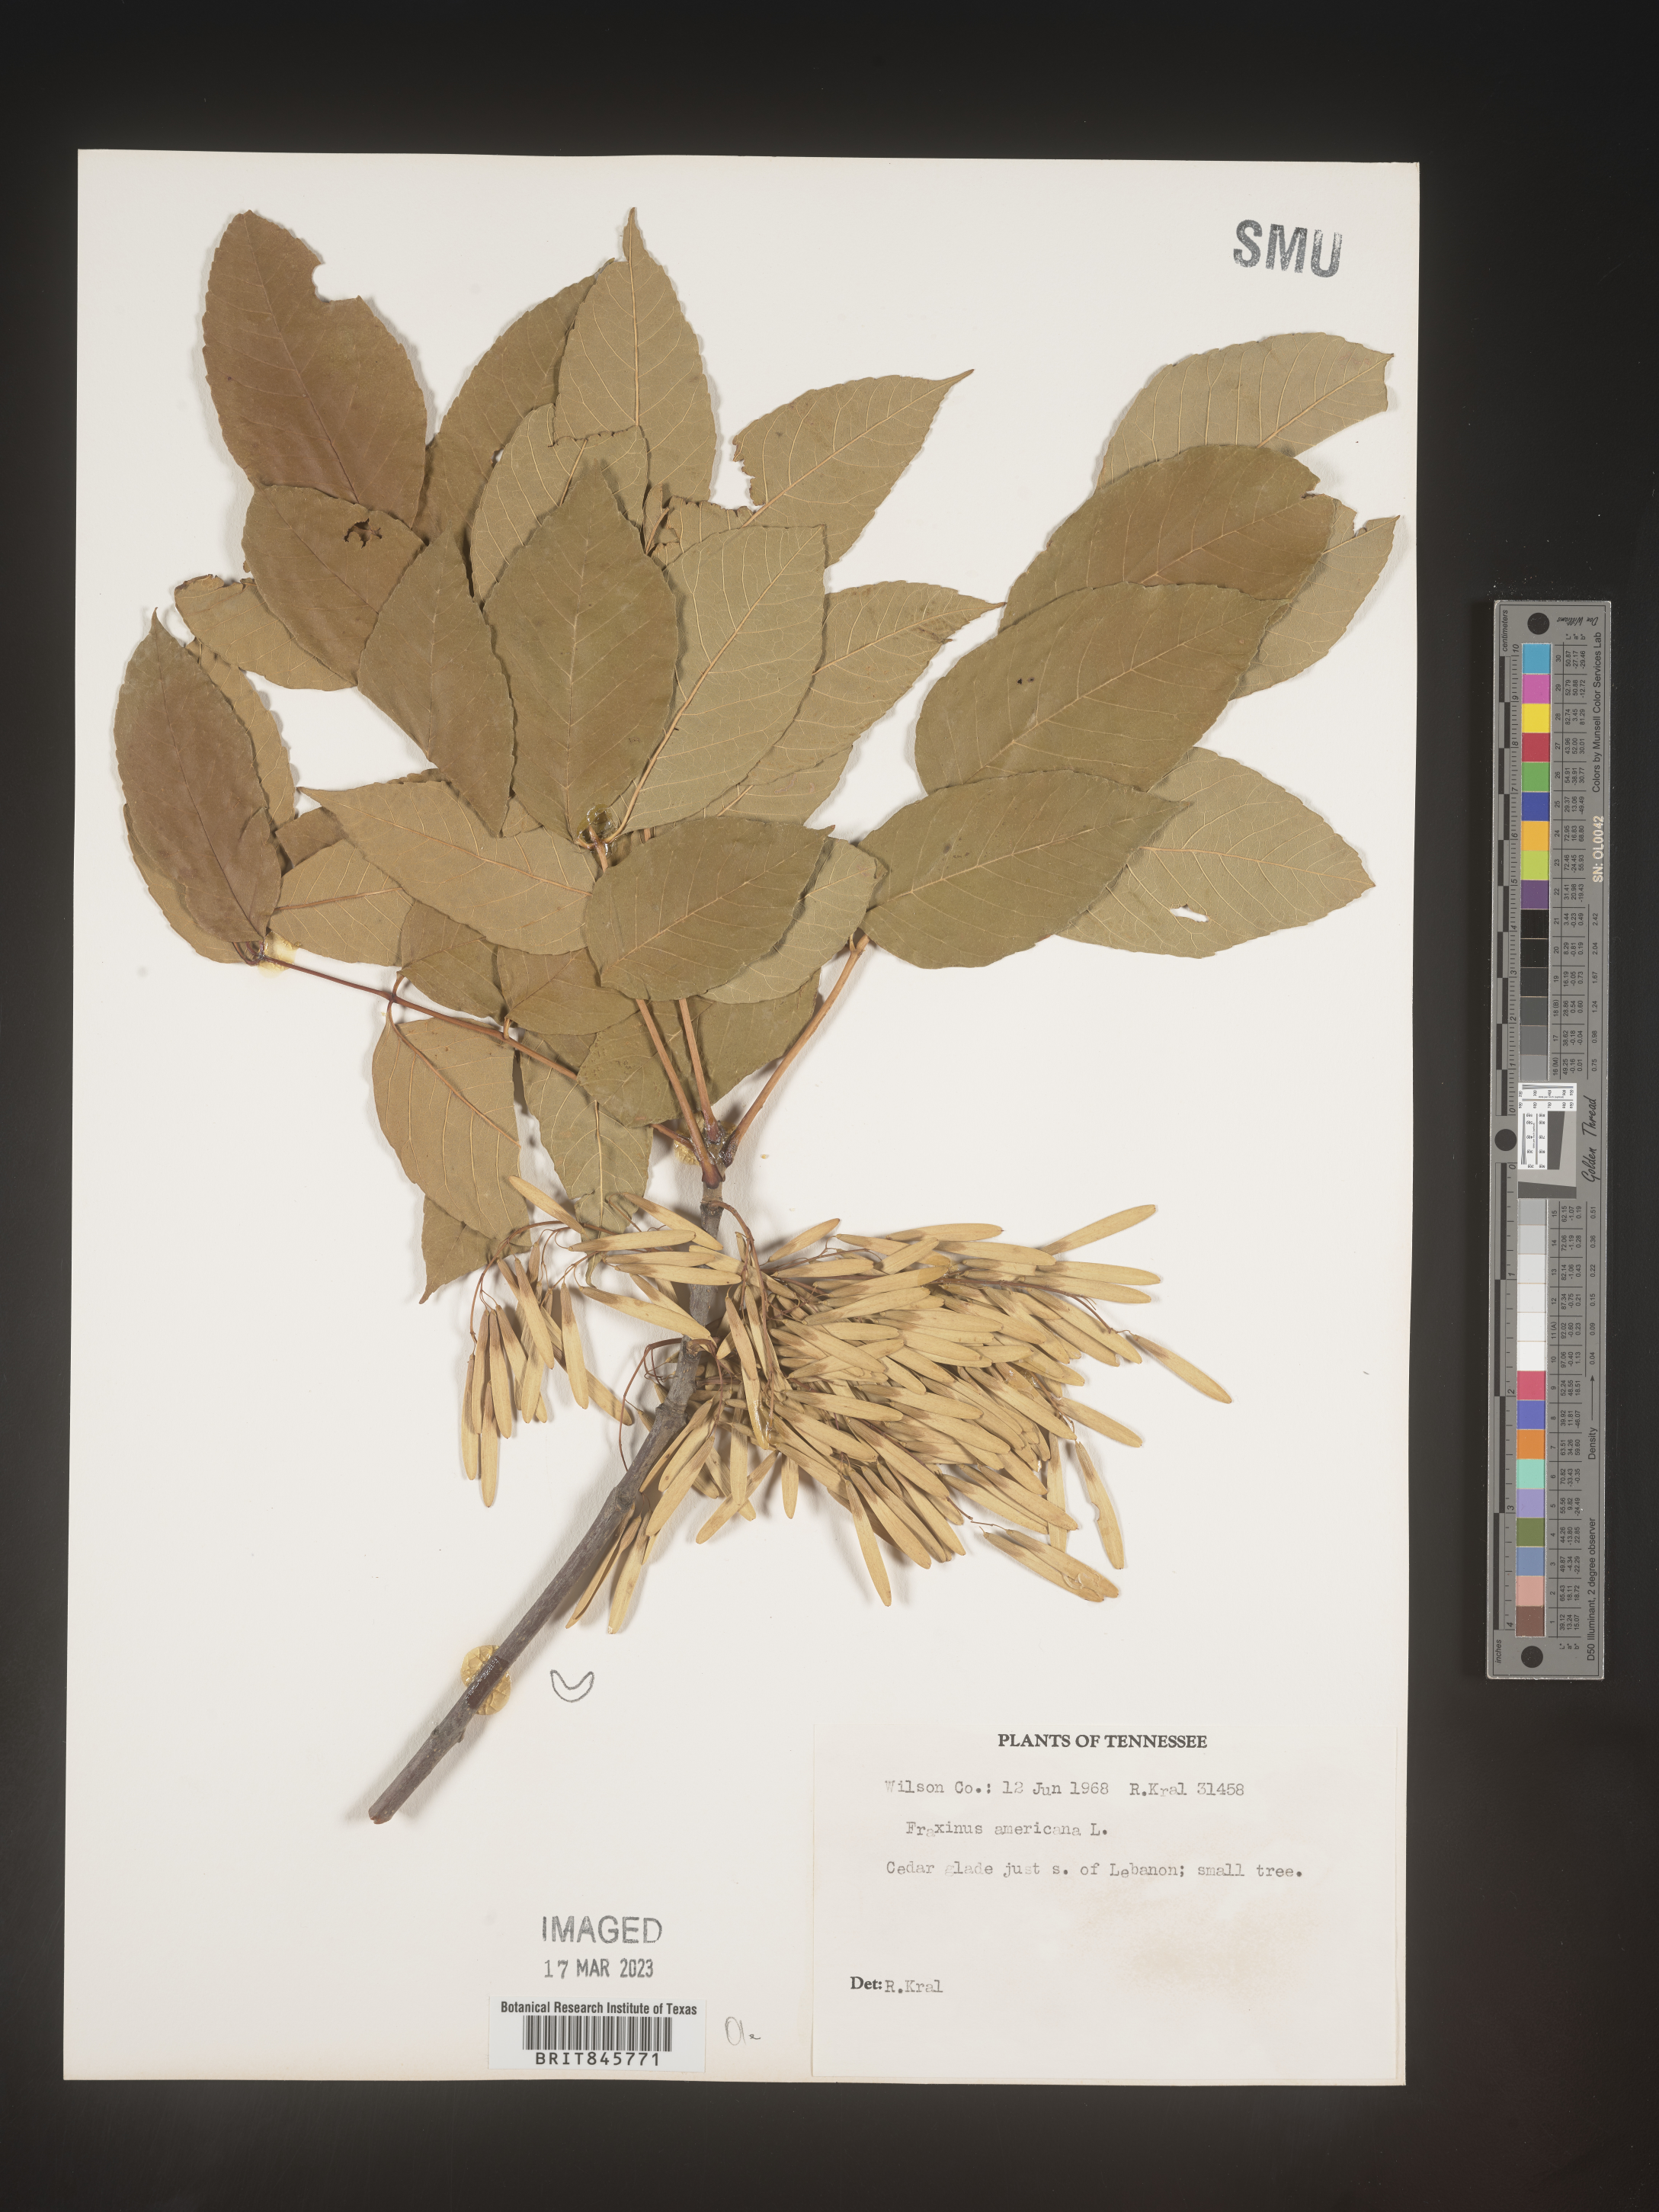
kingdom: Plantae
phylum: Tracheophyta
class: Magnoliopsida
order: Lamiales
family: Oleaceae
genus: Fraxinus
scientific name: Fraxinus americana
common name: White ash
